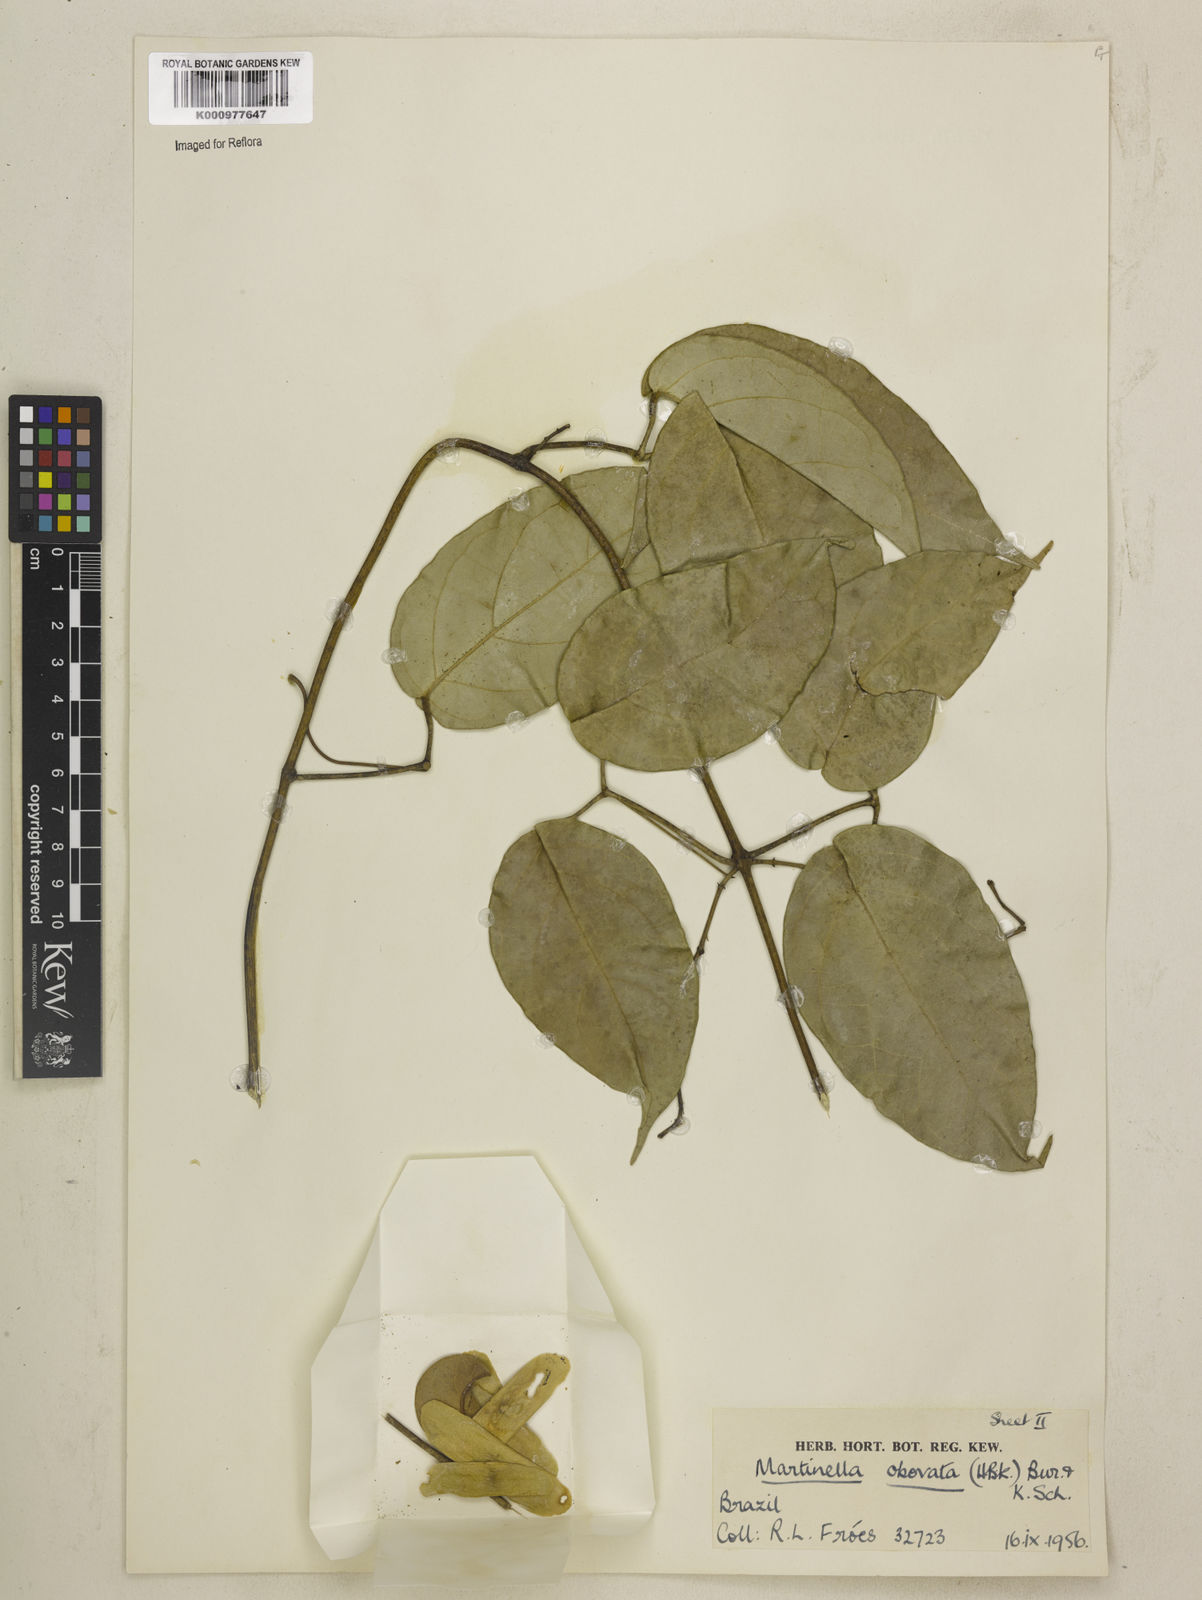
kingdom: Animalia
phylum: Arthropoda
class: Insecta
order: Coleoptera
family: Chrysomelidae
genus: Martinella
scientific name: Martinella obovata
